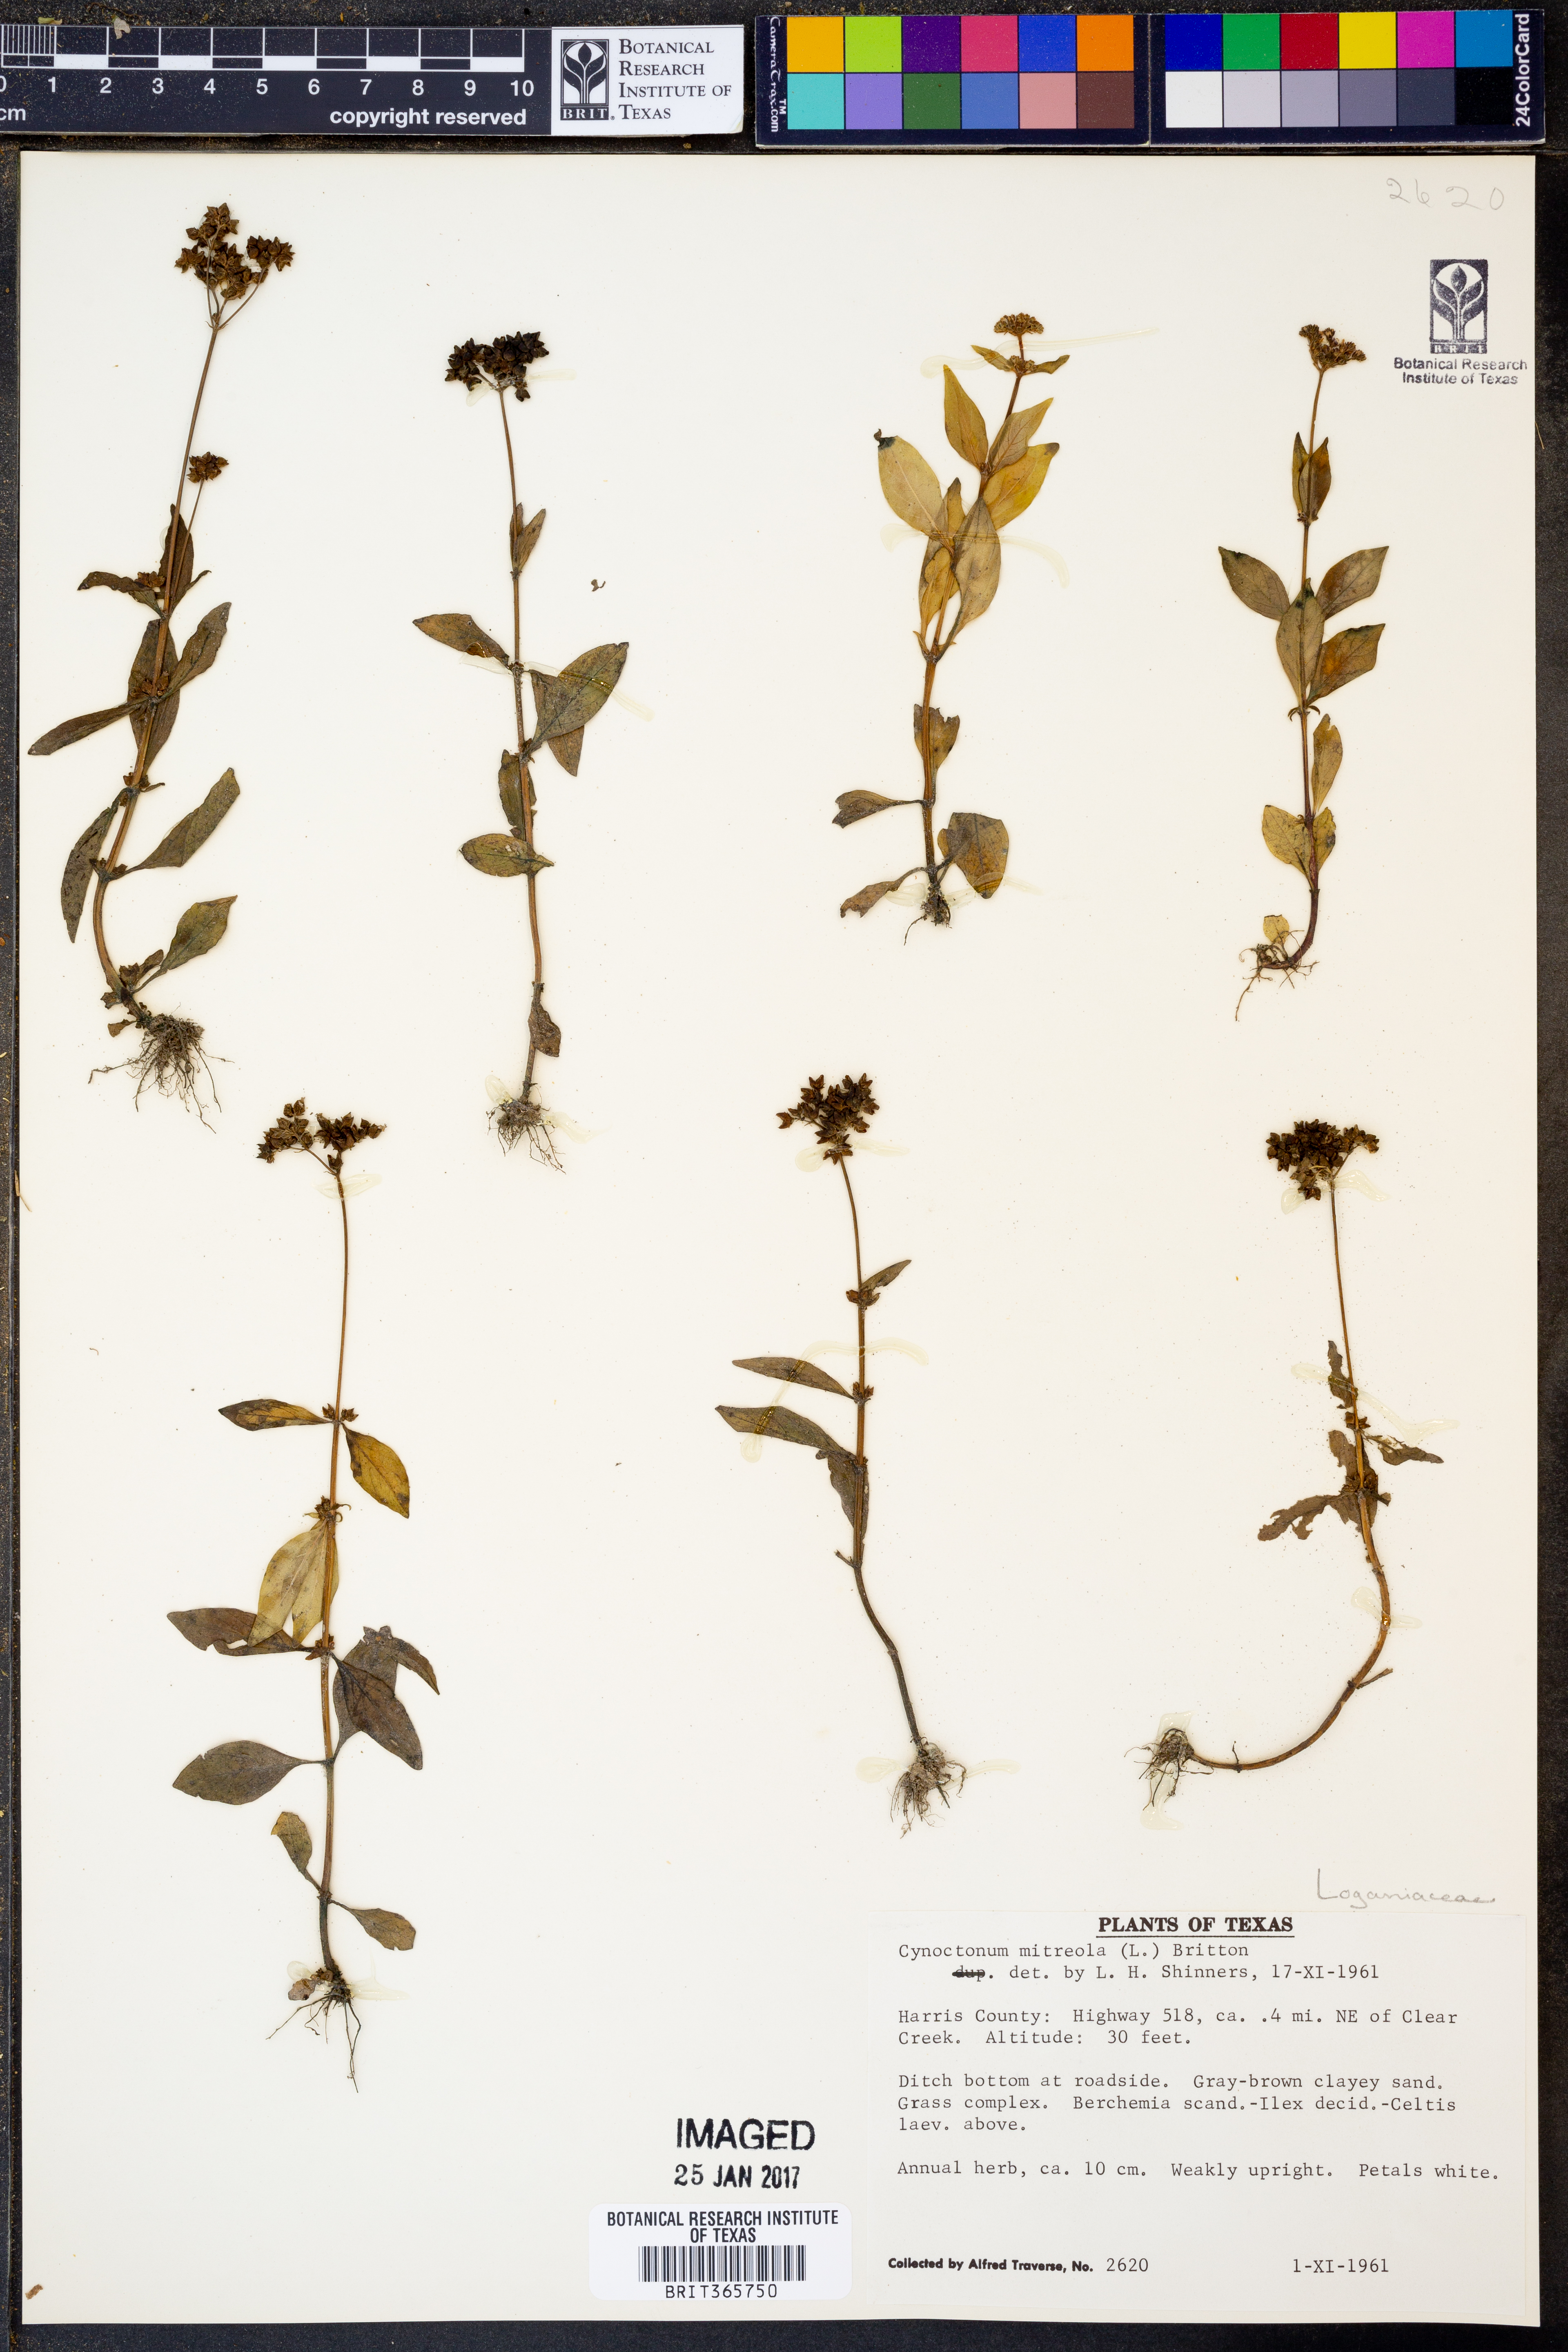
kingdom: Plantae
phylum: Tracheophyta
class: Magnoliopsida
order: Gentianales
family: Loganiaceae
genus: Mitreola
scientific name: Mitreola petiolata
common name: Lax hornpod
